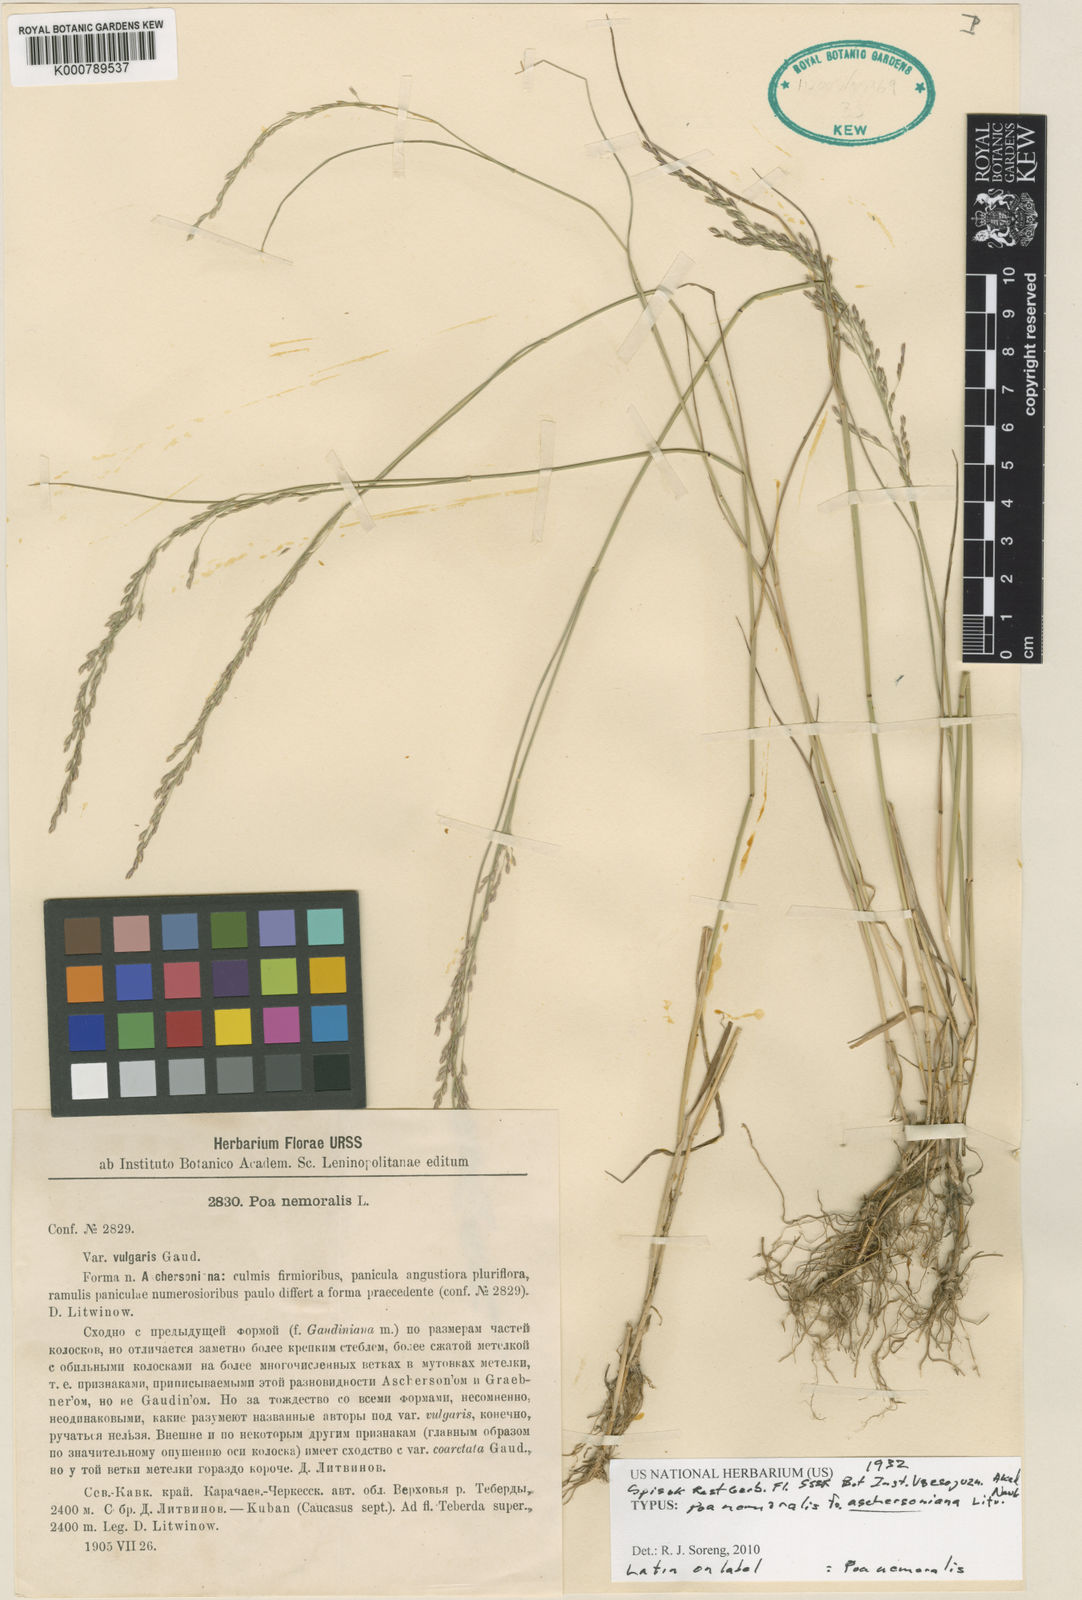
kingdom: Plantae
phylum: Tracheophyta
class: Liliopsida
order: Poales
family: Poaceae
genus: Poa
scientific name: Poa nemoralis
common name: Wood bluegrass
